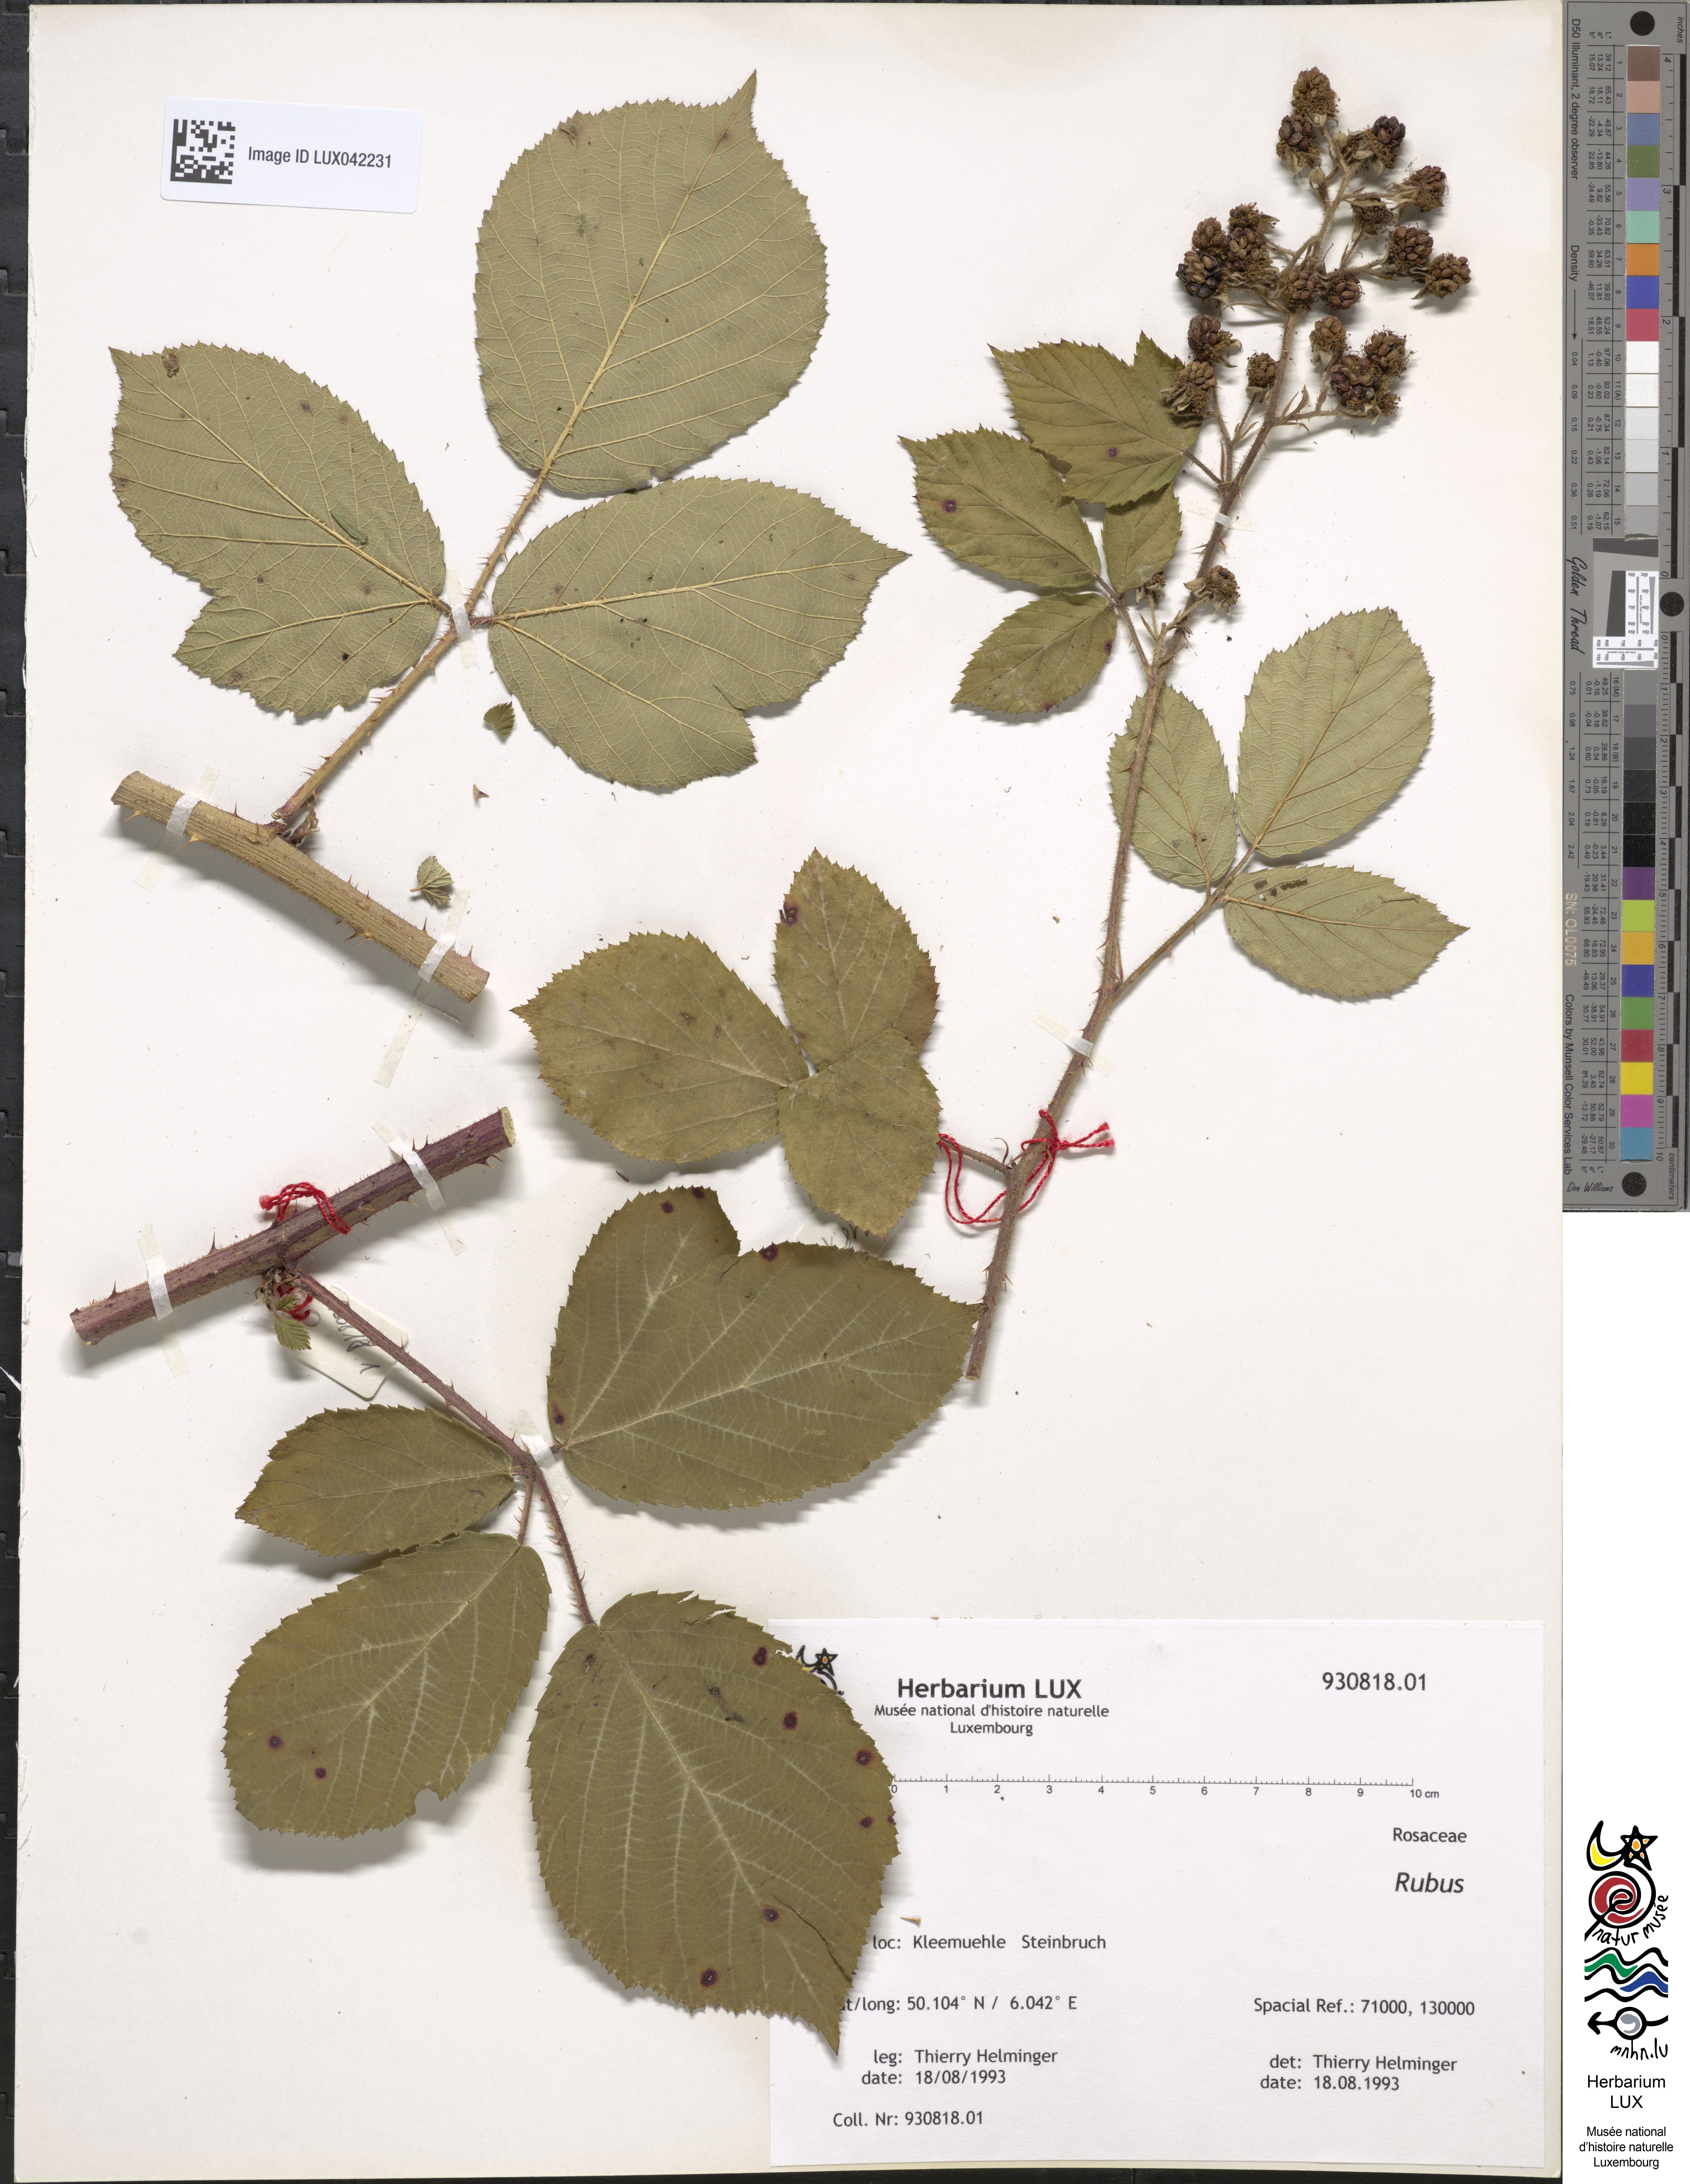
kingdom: Plantae
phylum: Tracheophyta
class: Magnoliopsida
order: Rosales
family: Rosaceae
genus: Rubus
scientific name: Rubus
